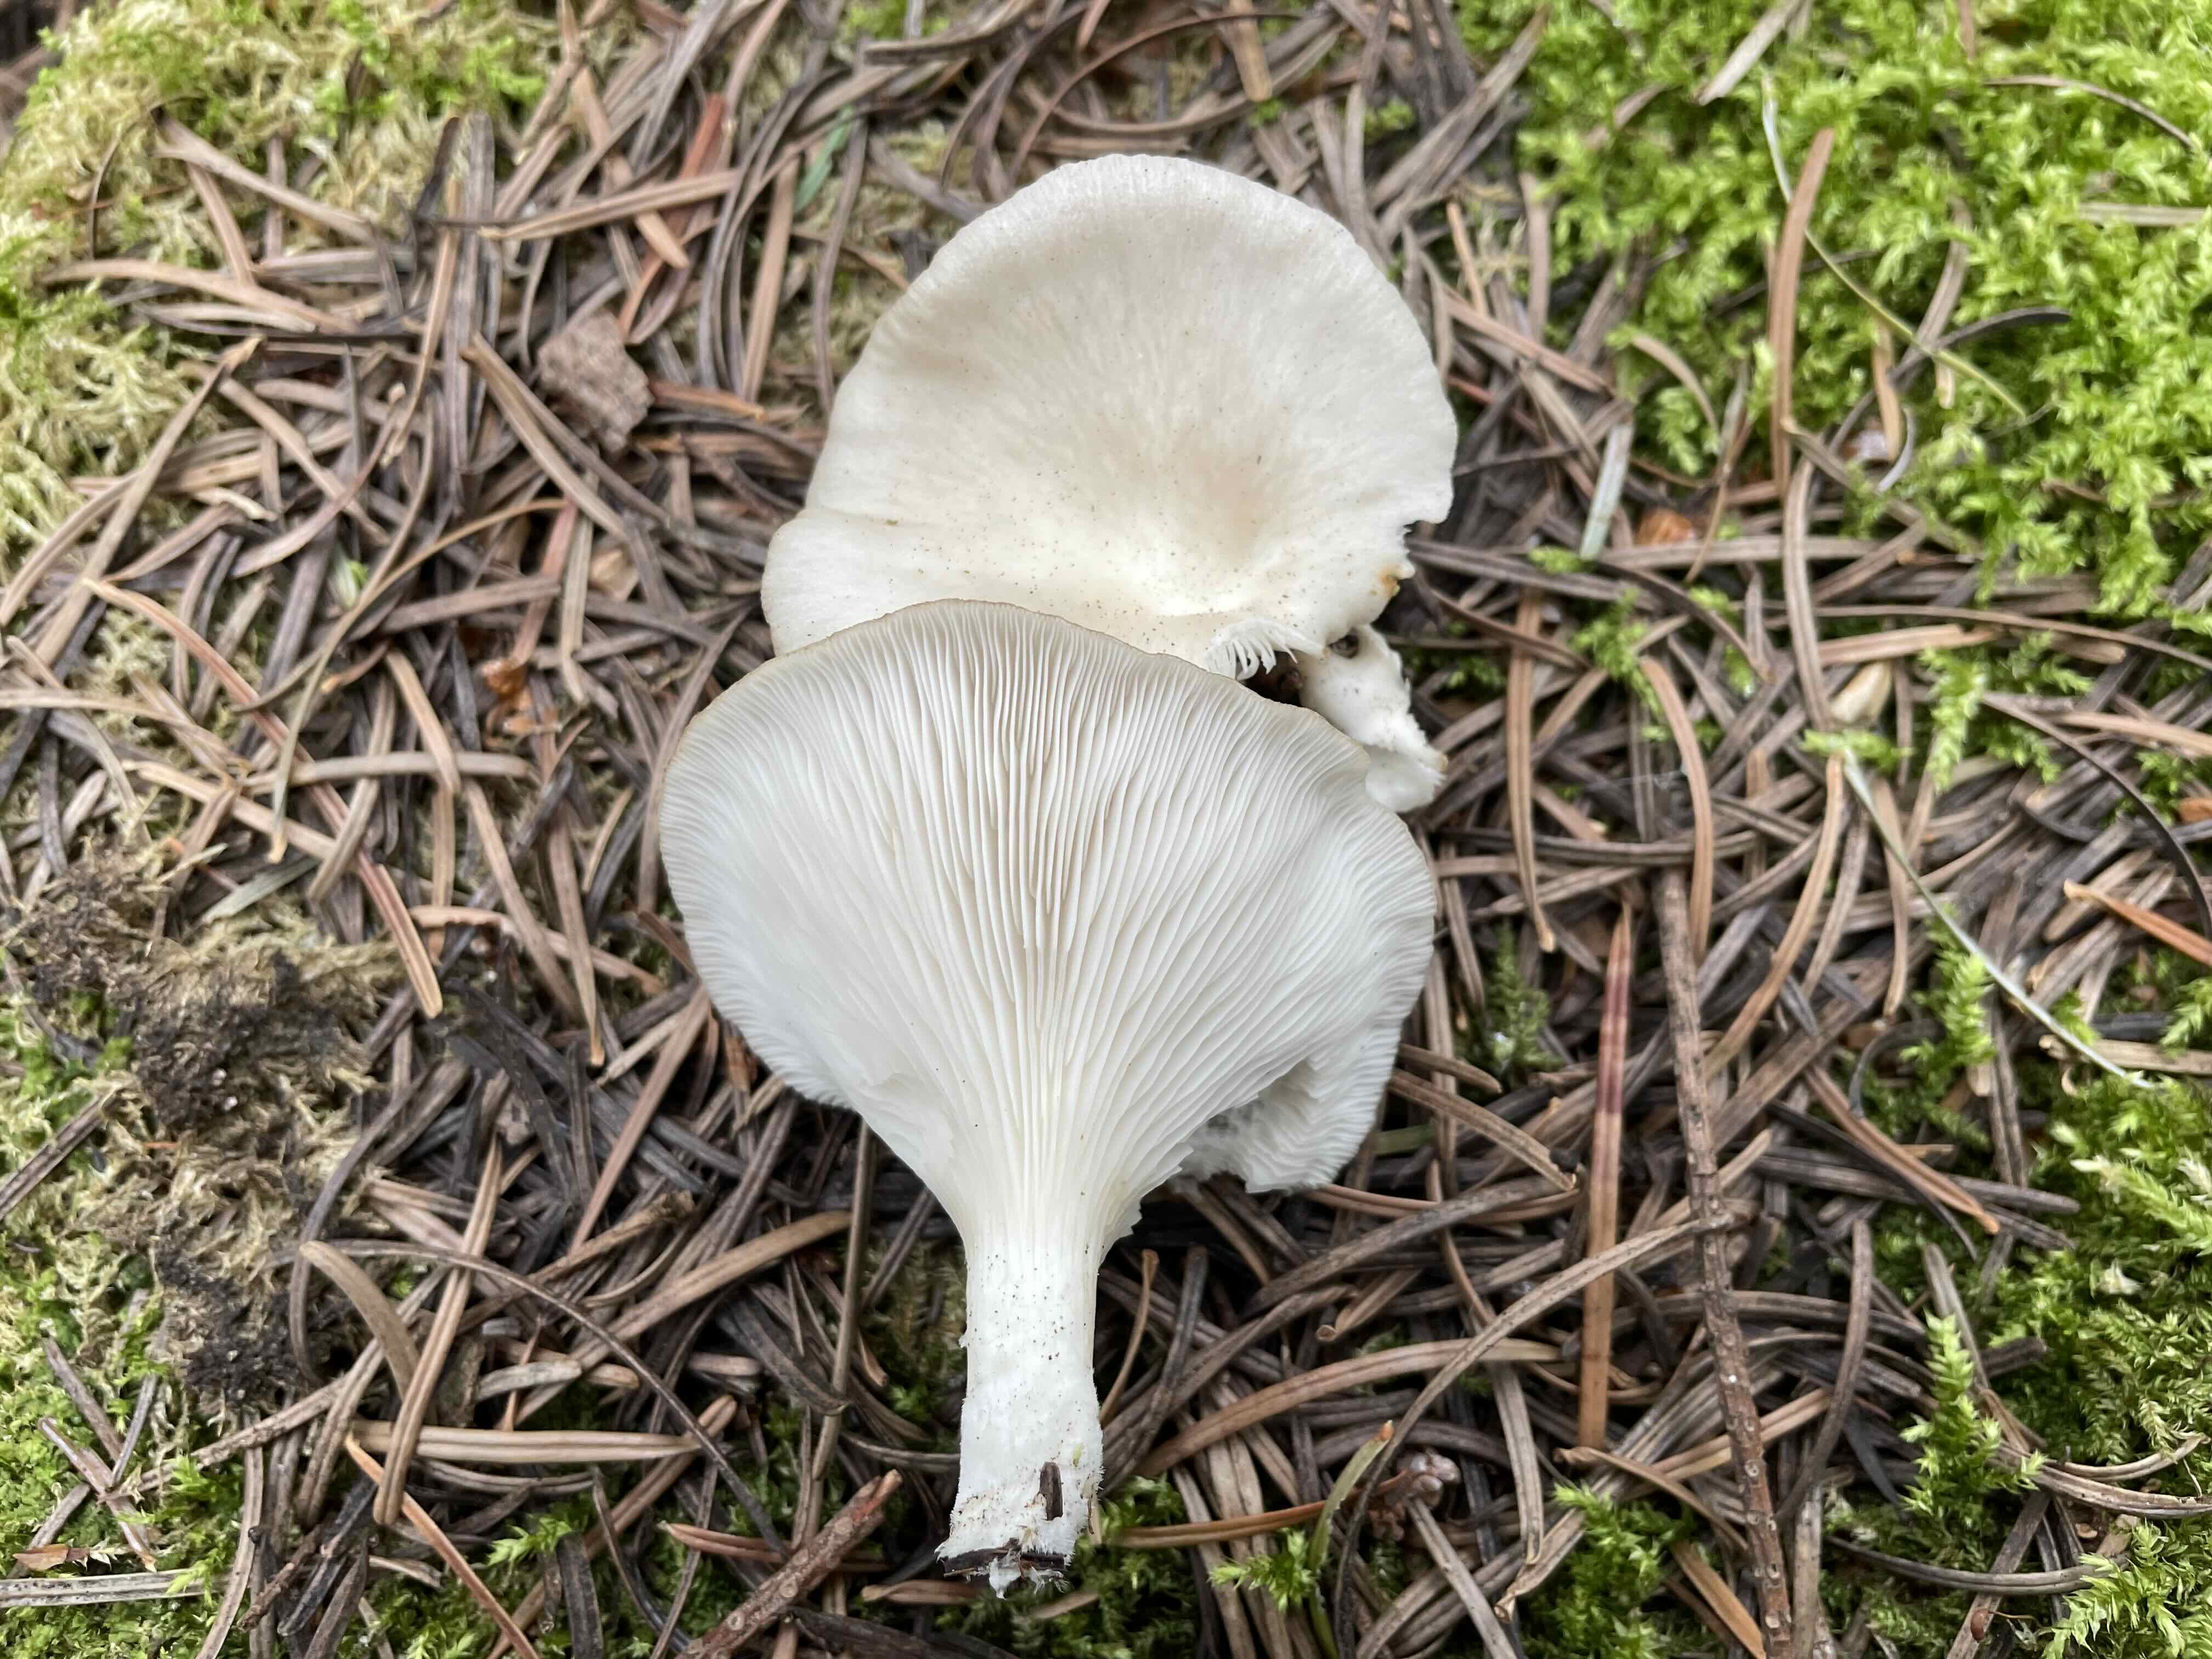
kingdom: Fungi
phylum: Basidiomycota
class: Agaricomycetes
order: Agaricales
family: Pleurotaceae
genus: Pleurotus
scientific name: Pleurotus pulmonarius
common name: sommer-østershat
